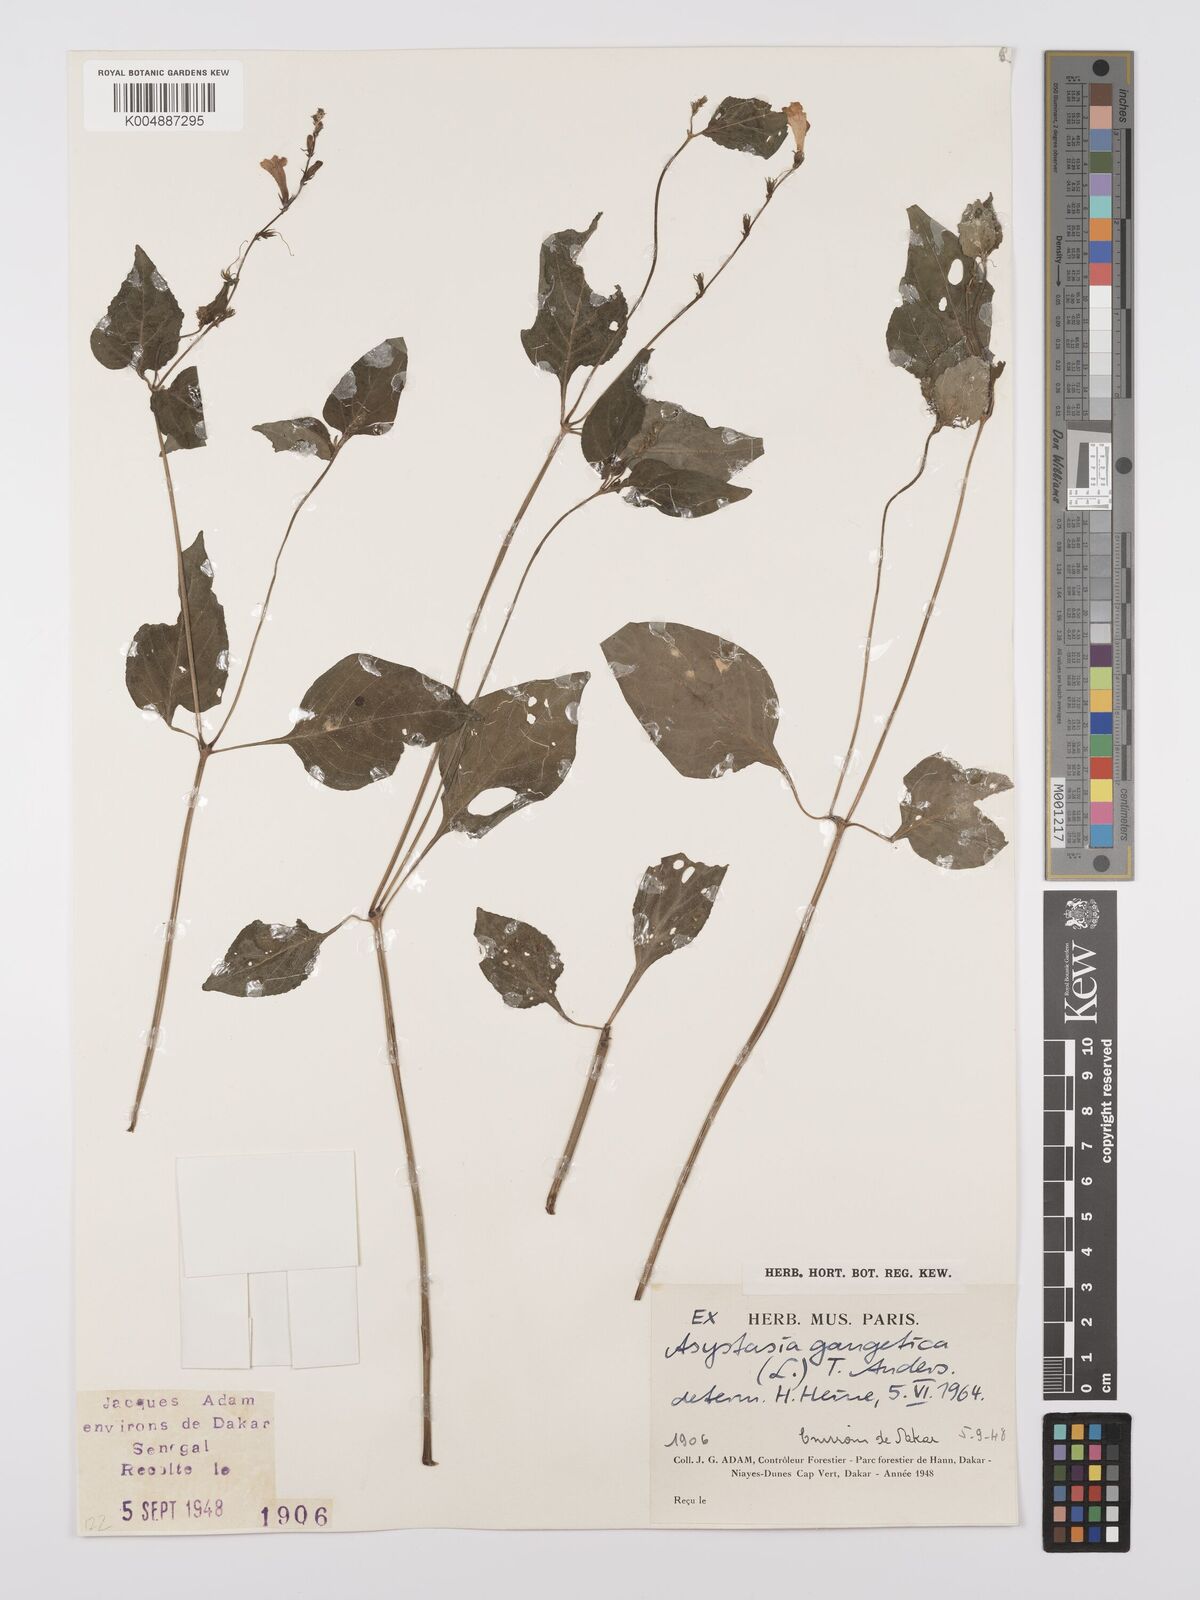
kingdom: Plantae
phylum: Tracheophyta
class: Magnoliopsida
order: Lamiales
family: Acanthaceae
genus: Asystasia
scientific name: Asystasia gangetica
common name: Chinese violet
